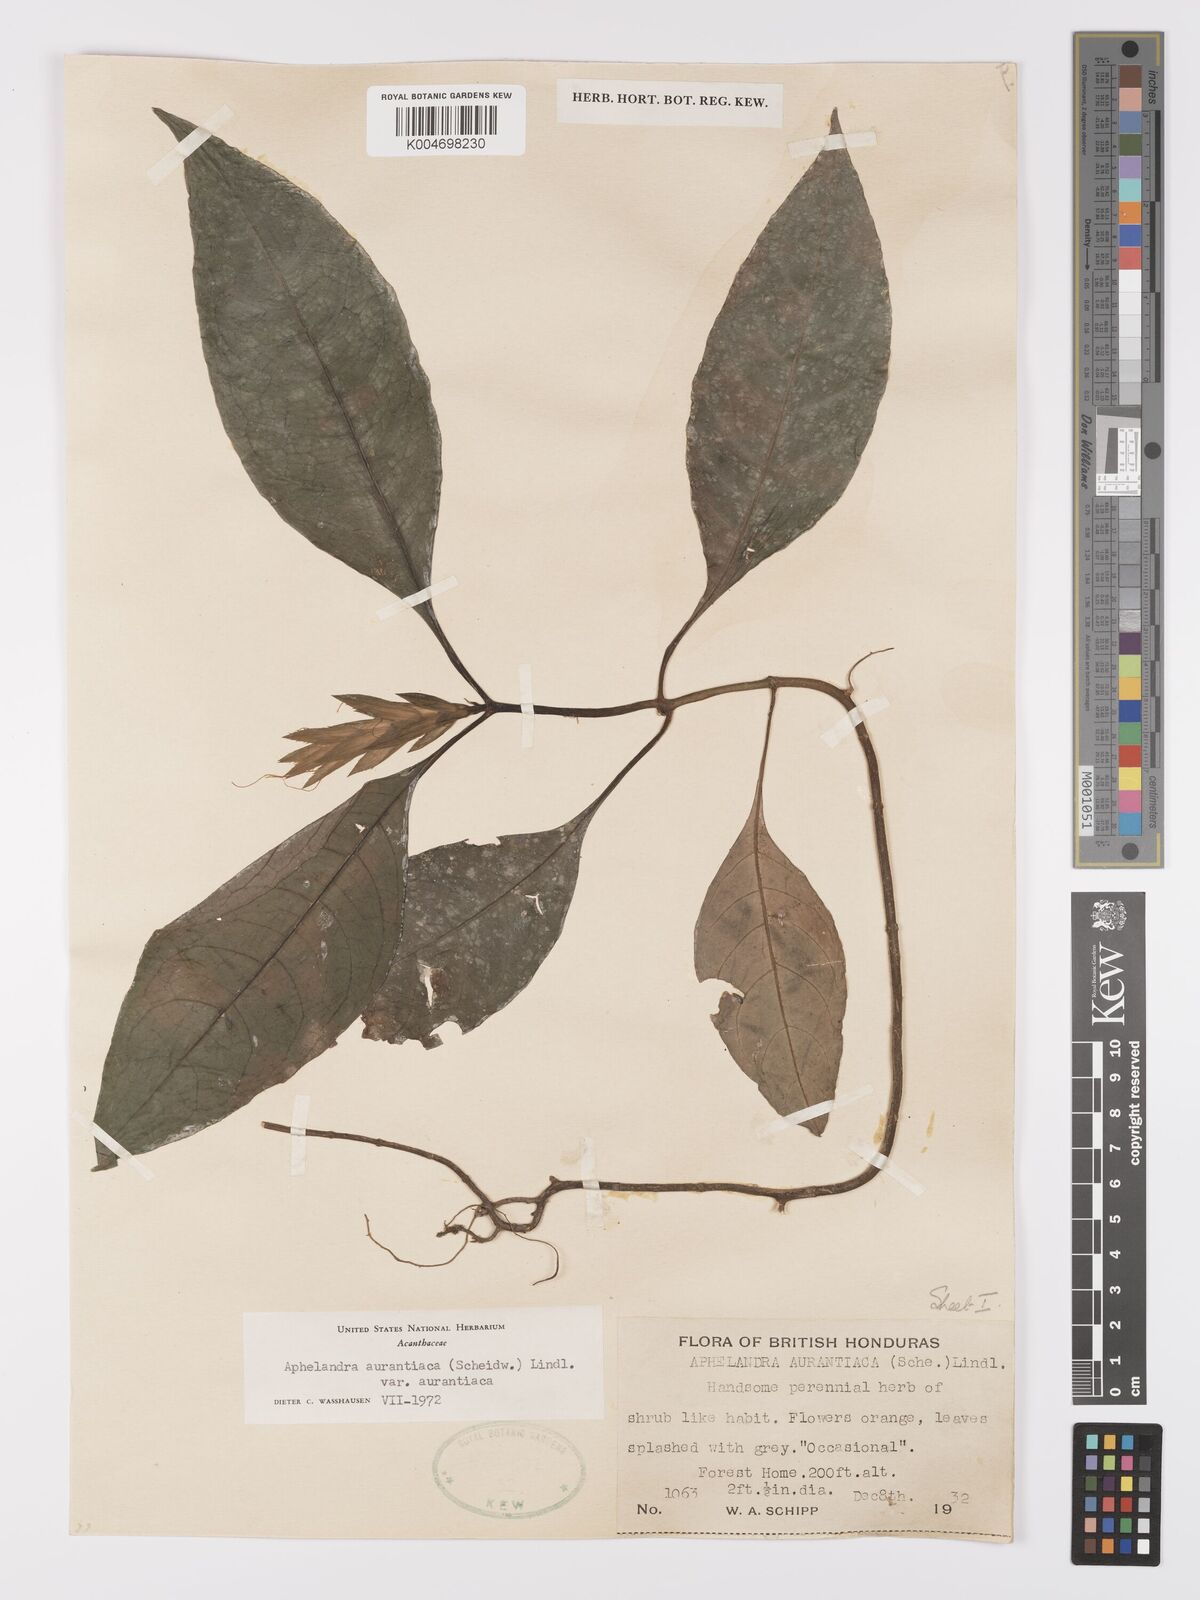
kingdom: Plantae
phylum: Tracheophyta
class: Magnoliopsida
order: Lamiales
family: Acanthaceae
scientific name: Acanthaceae
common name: Acanthaceae
